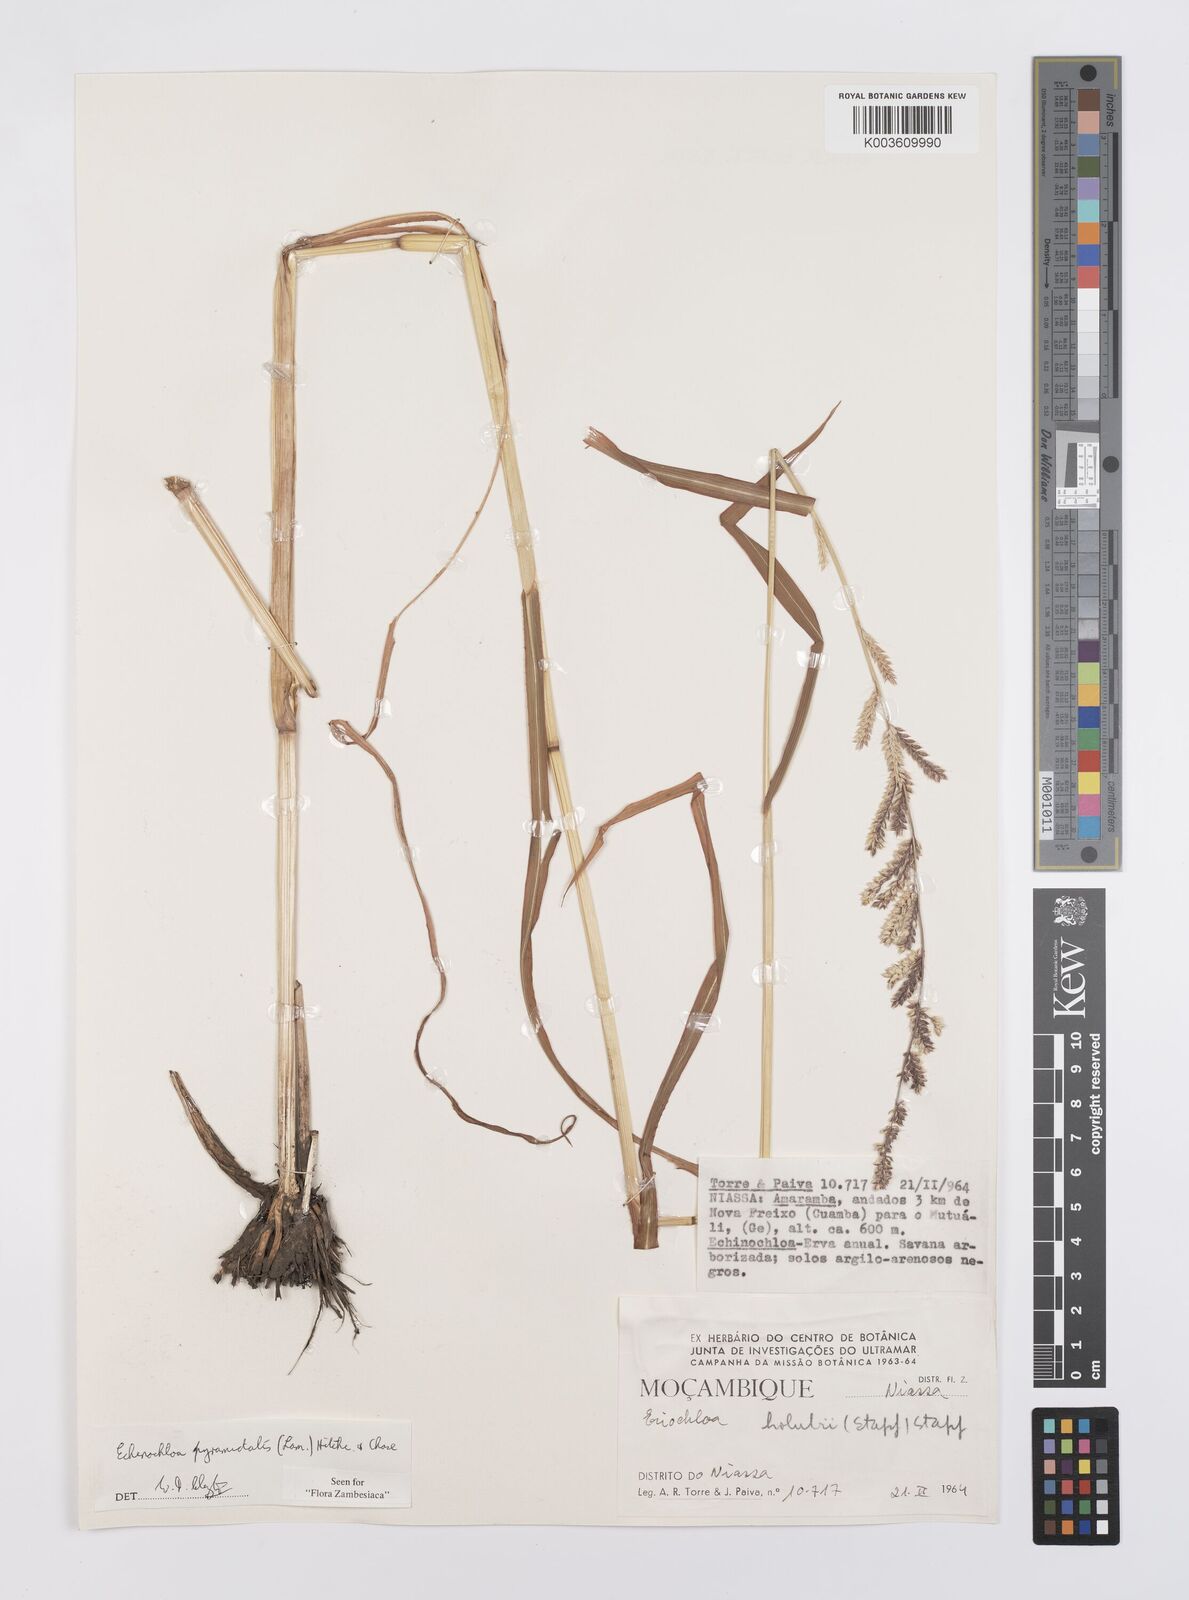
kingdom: Plantae
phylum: Tracheophyta
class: Liliopsida
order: Poales
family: Poaceae
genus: Echinochloa
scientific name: Echinochloa pyramidalis
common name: Antelope grass
